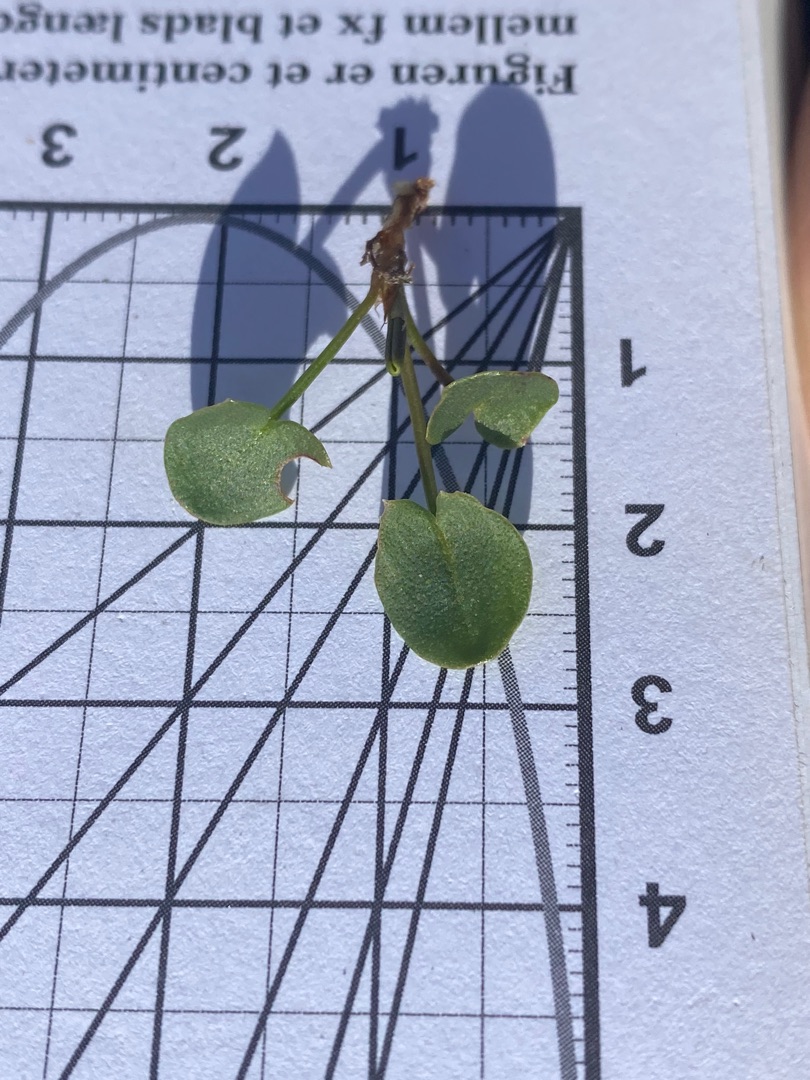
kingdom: Plantae
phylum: Tracheophyta
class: Magnoliopsida
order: Asterales
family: Campanulaceae
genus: Campanula
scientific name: Campanula persicifolia
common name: Smalbladet klokke
